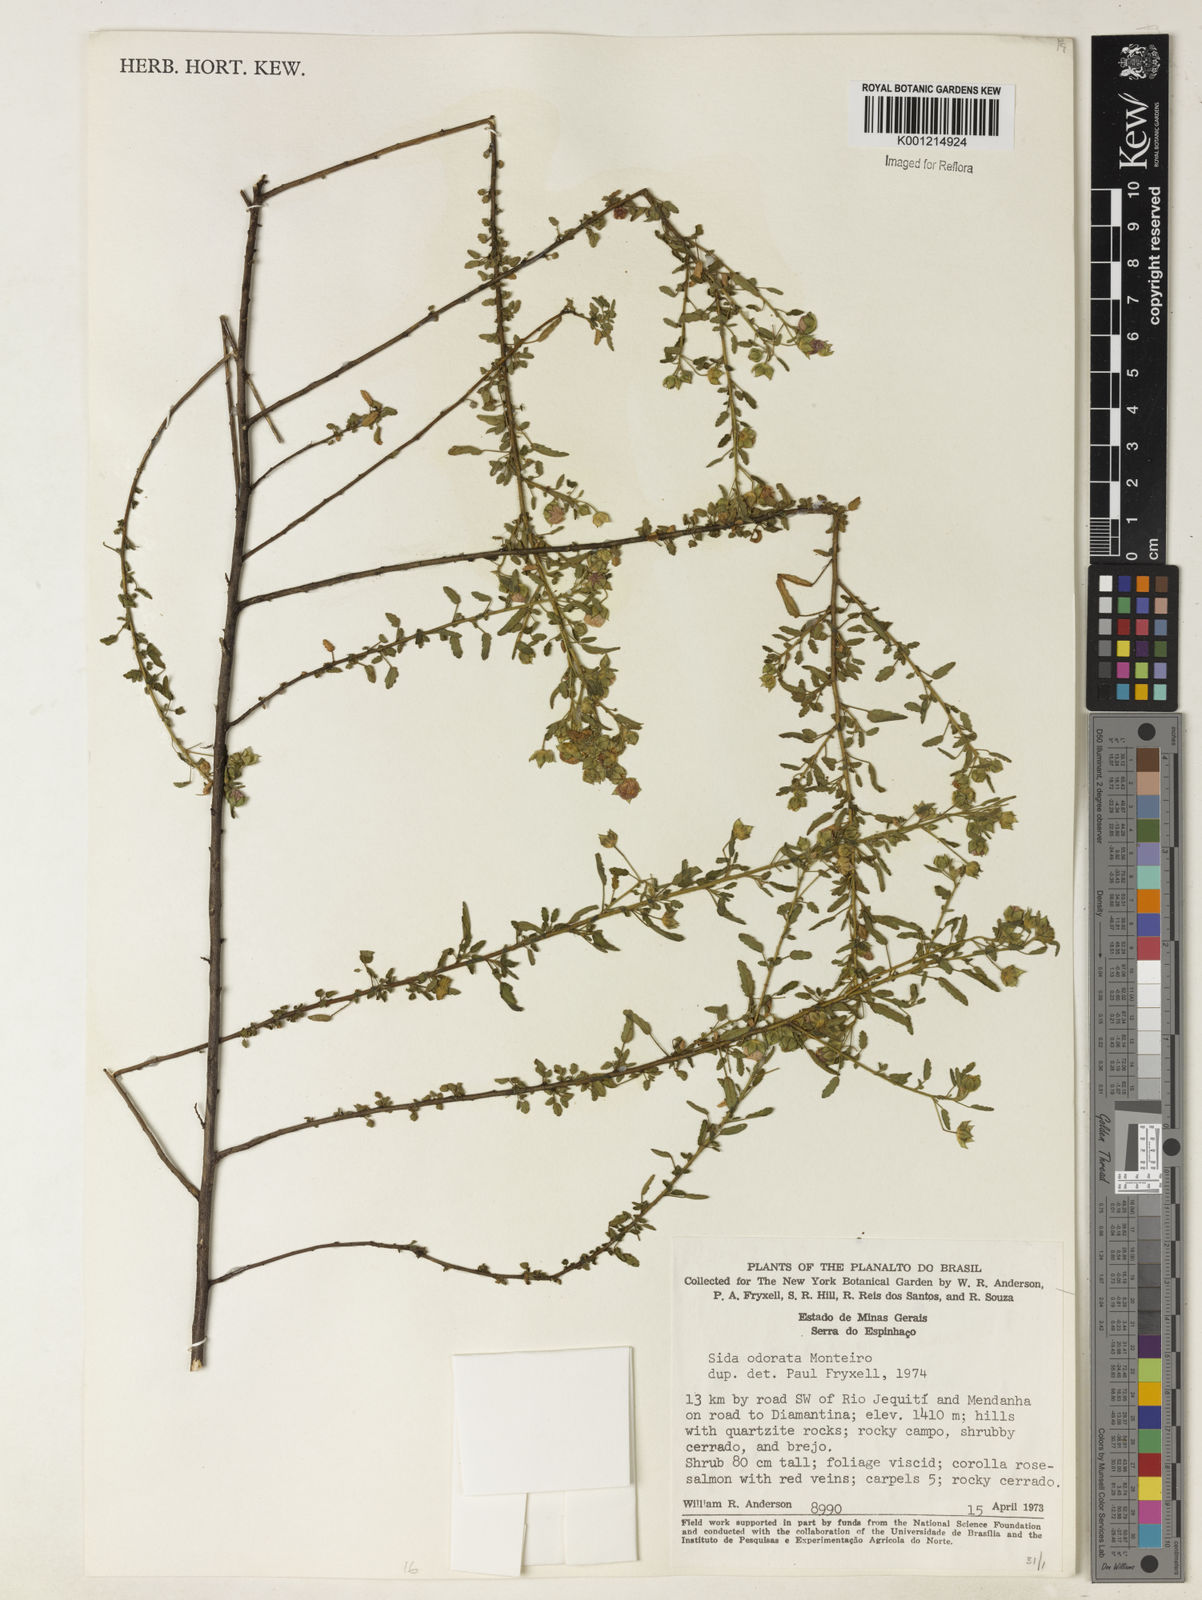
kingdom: Plantae
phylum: Tracheophyta
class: Magnoliopsida
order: Malvales
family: Malvaceae
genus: Sida
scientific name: Sida
